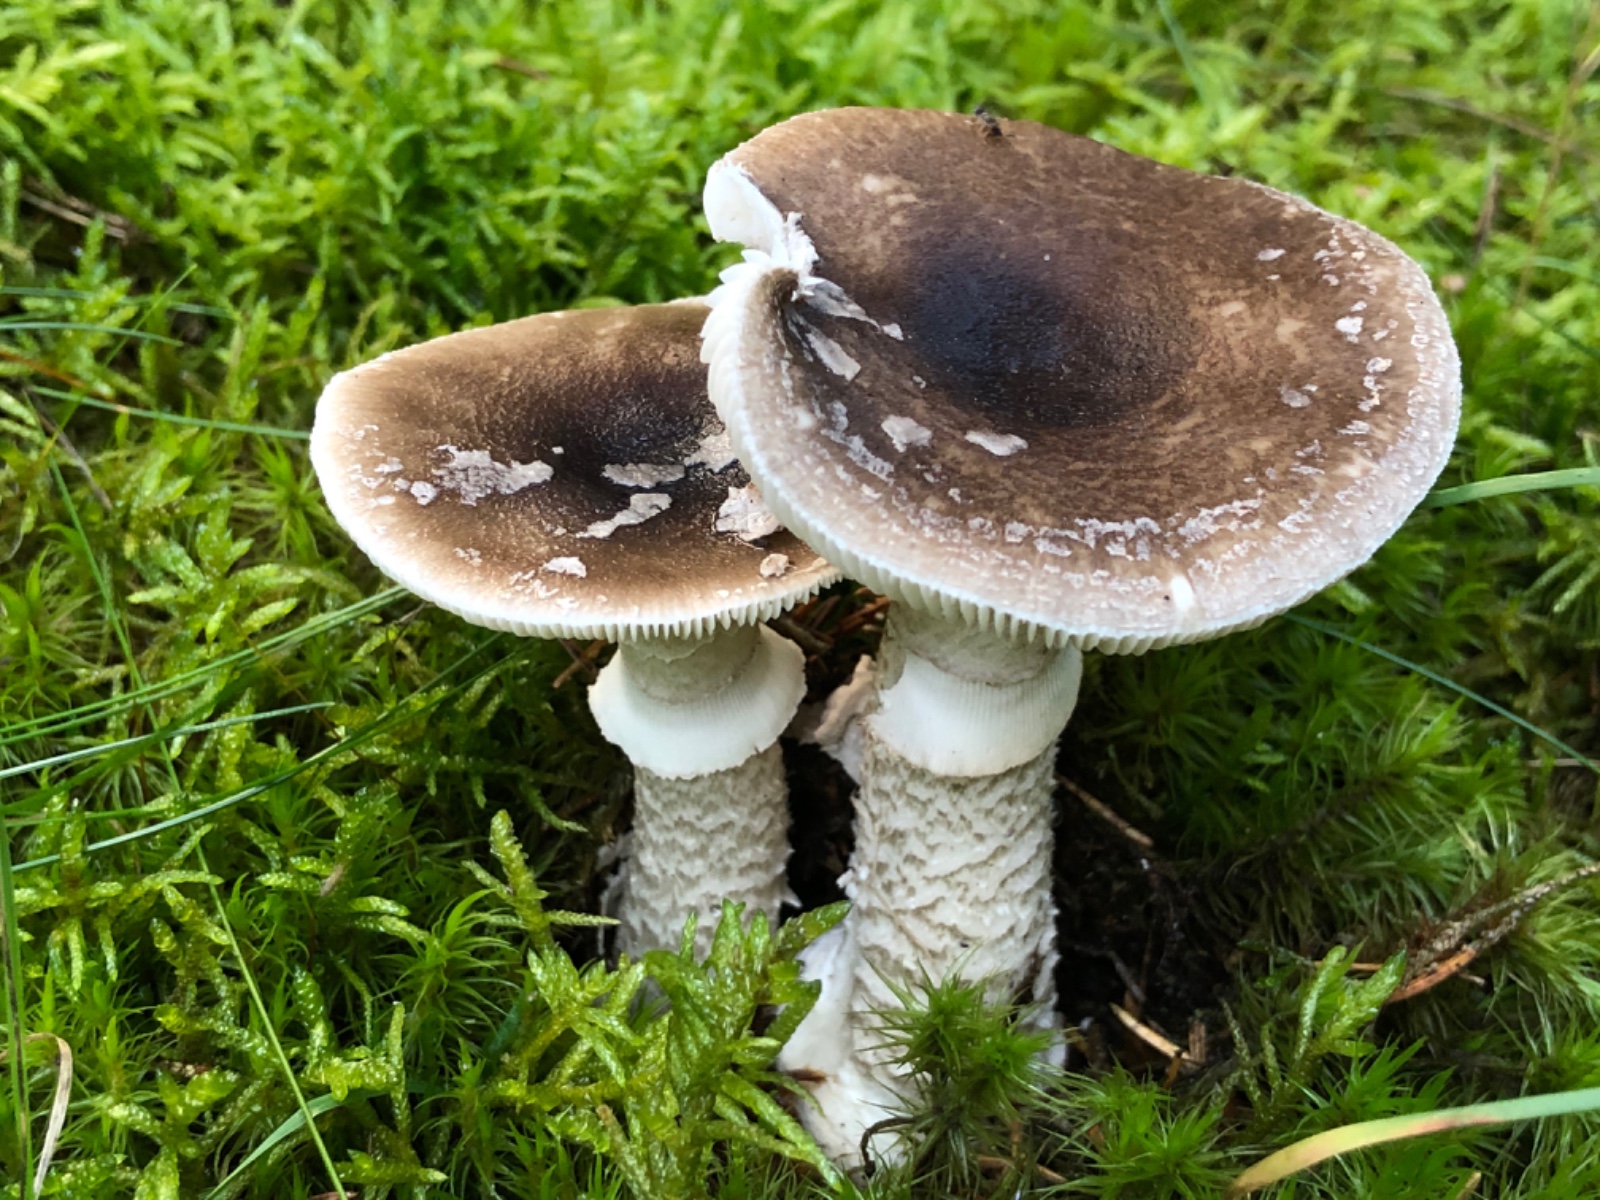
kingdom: Fungi
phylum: Basidiomycota
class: Agaricomycetes
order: Agaricales
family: Amanitaceae
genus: Amanita
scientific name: Amanita
